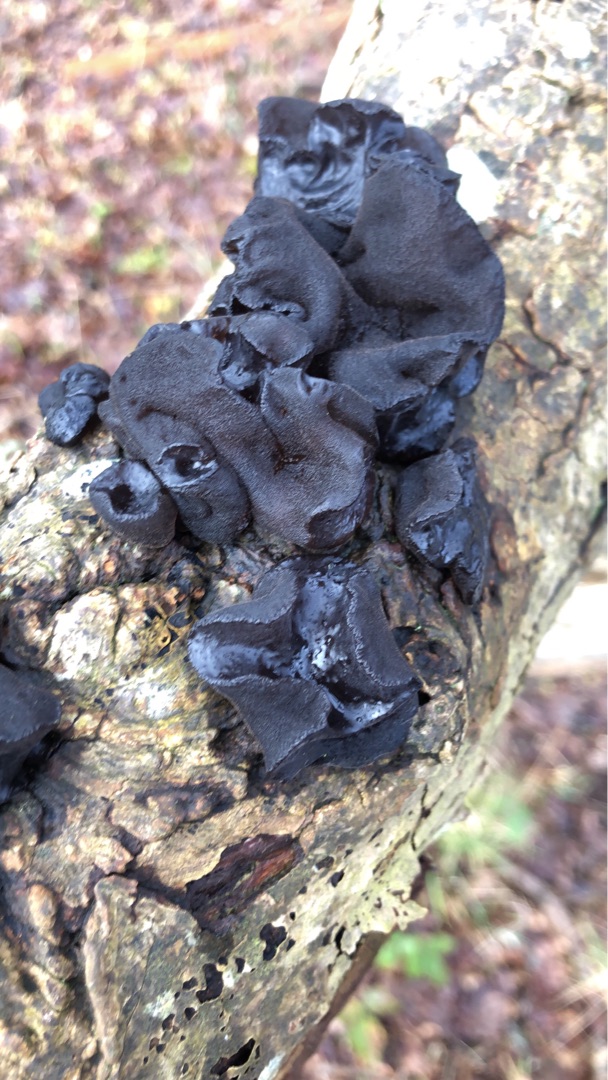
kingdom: Fungi
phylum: Basidiomycota
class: Agaricomycetes
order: Auriculariales
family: Auriculariaceae
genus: Exidia
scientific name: Exidia glandulosa
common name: Ege-bævretop
